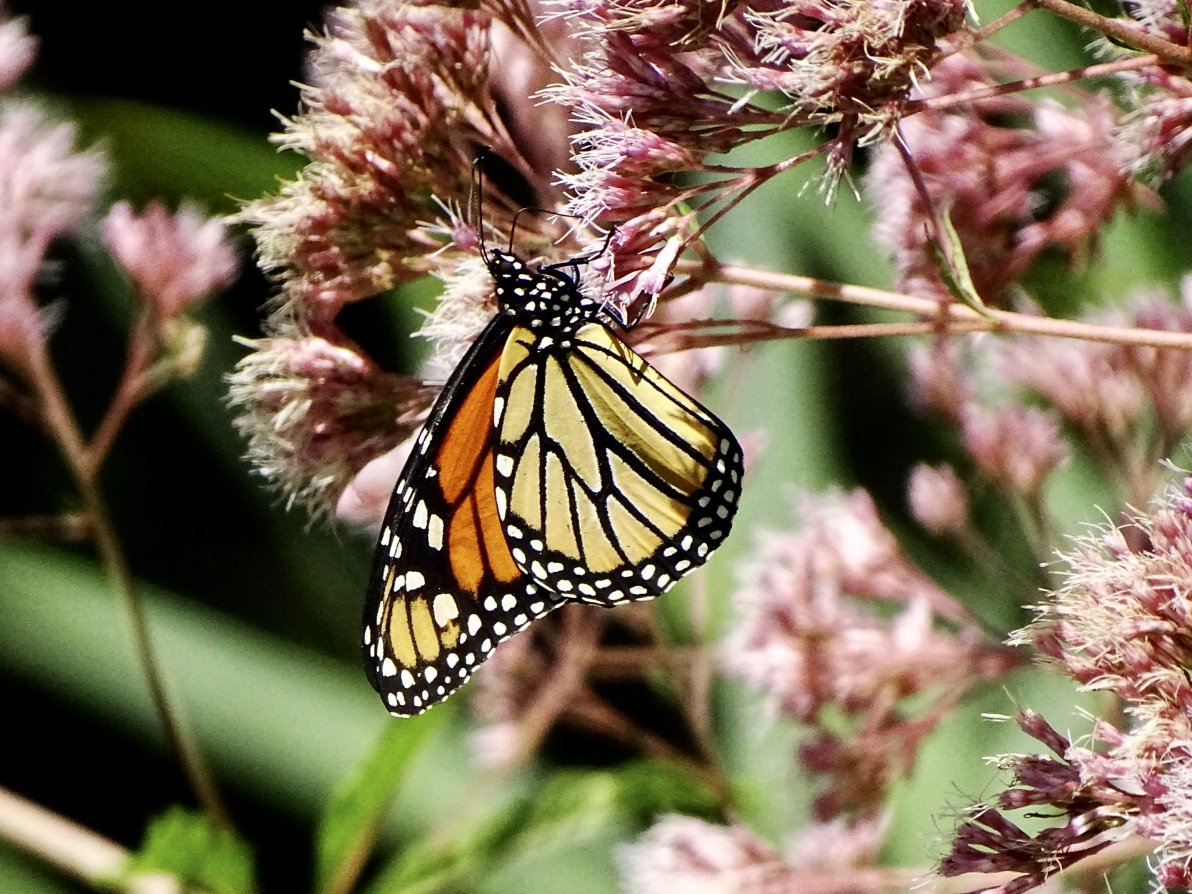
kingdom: Animalia
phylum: Arthropoda
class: Insecta
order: Lepidoptera
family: Nymphalidae
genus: Danaus
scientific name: Danaus plexippus
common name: Monarch
